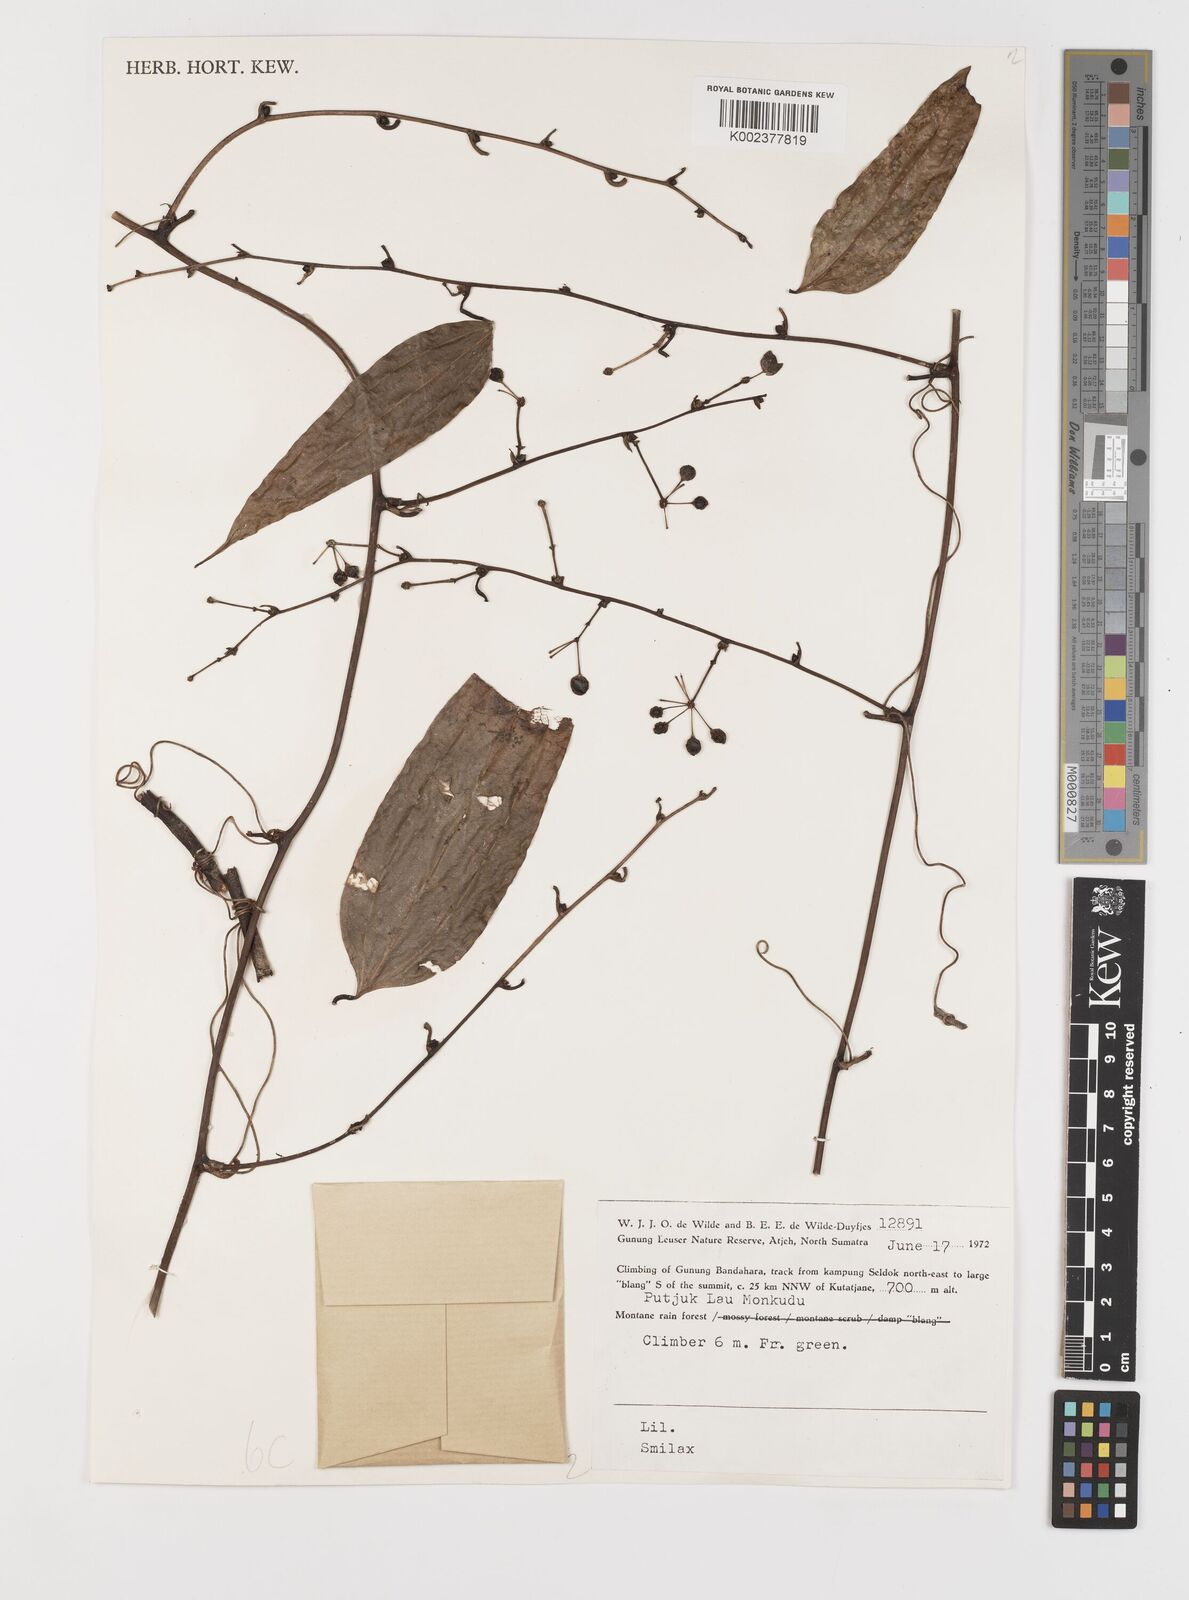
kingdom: Plantae
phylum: Tracheophyta
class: Liliopsida
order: Liliales
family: Smilacaceae
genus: Smilax
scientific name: Smilax
